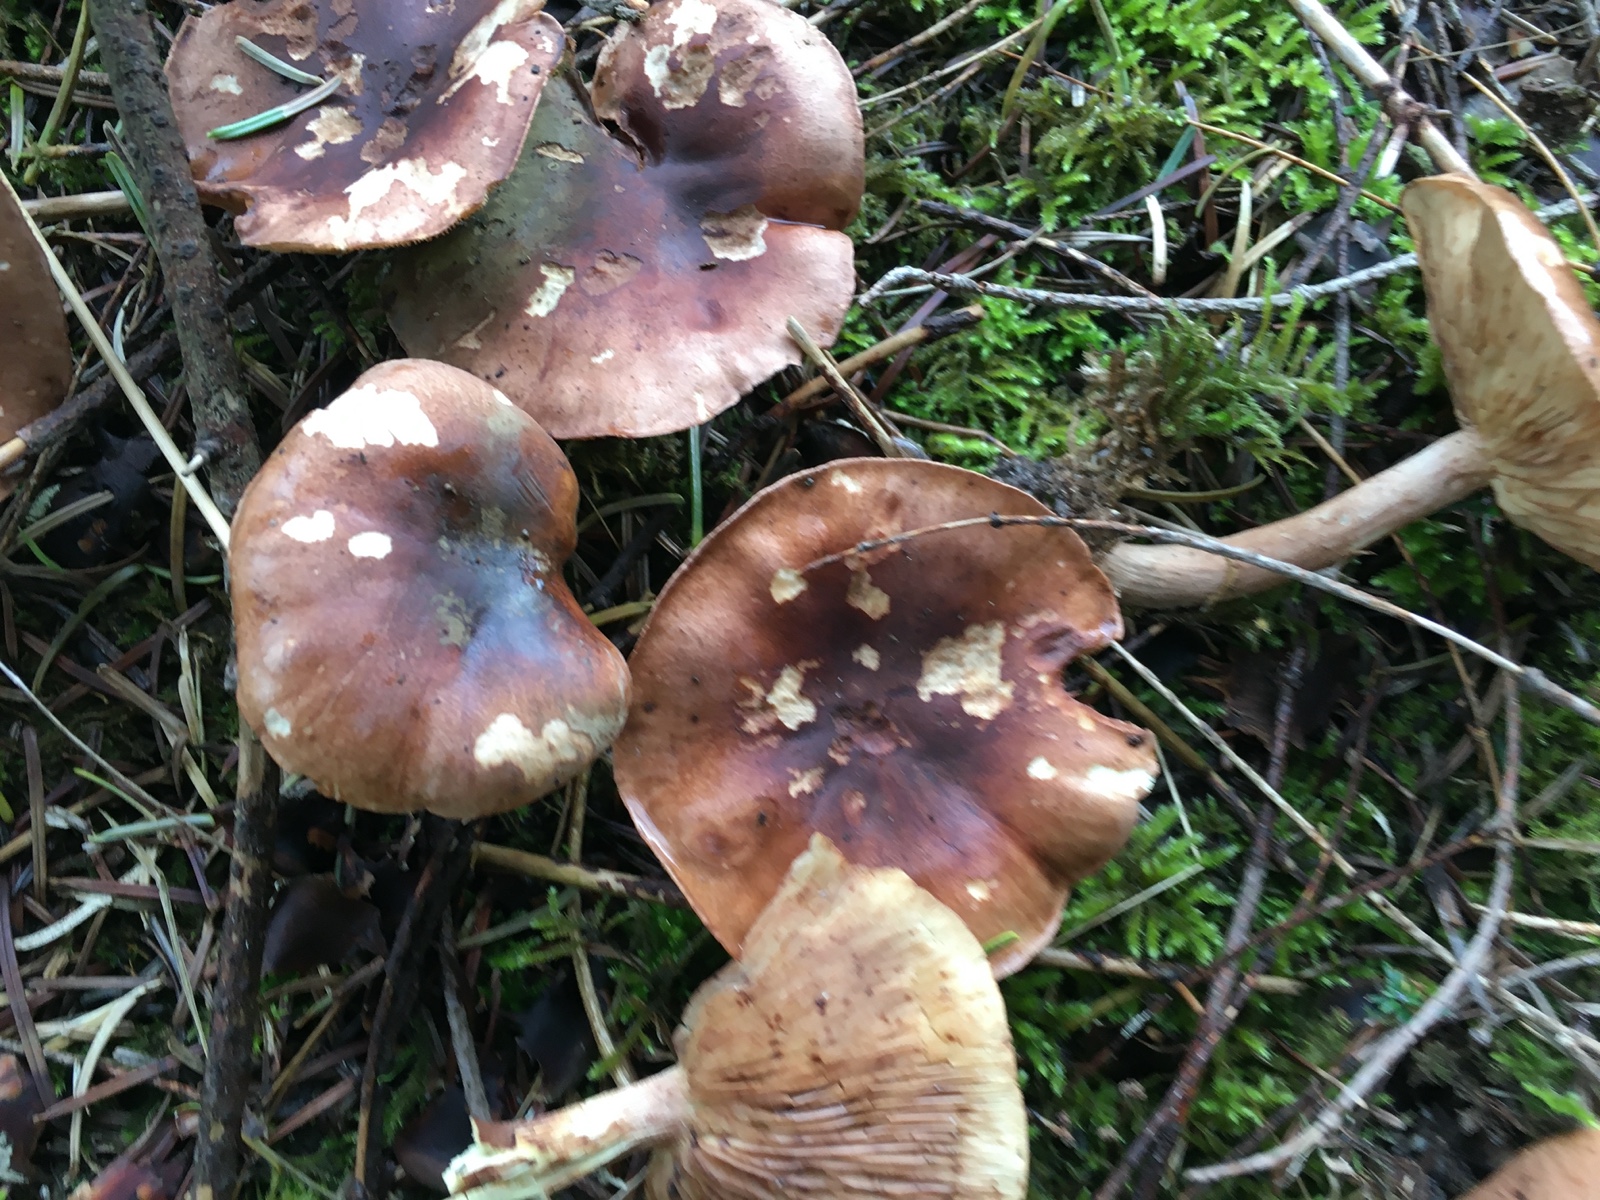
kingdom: Fungi
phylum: Basidiomycota
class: Agaricomycetes
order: Agaricales
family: Tricholomataceae
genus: Tricholoma
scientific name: Tricholoma fulvum
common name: birke-ridderhat
